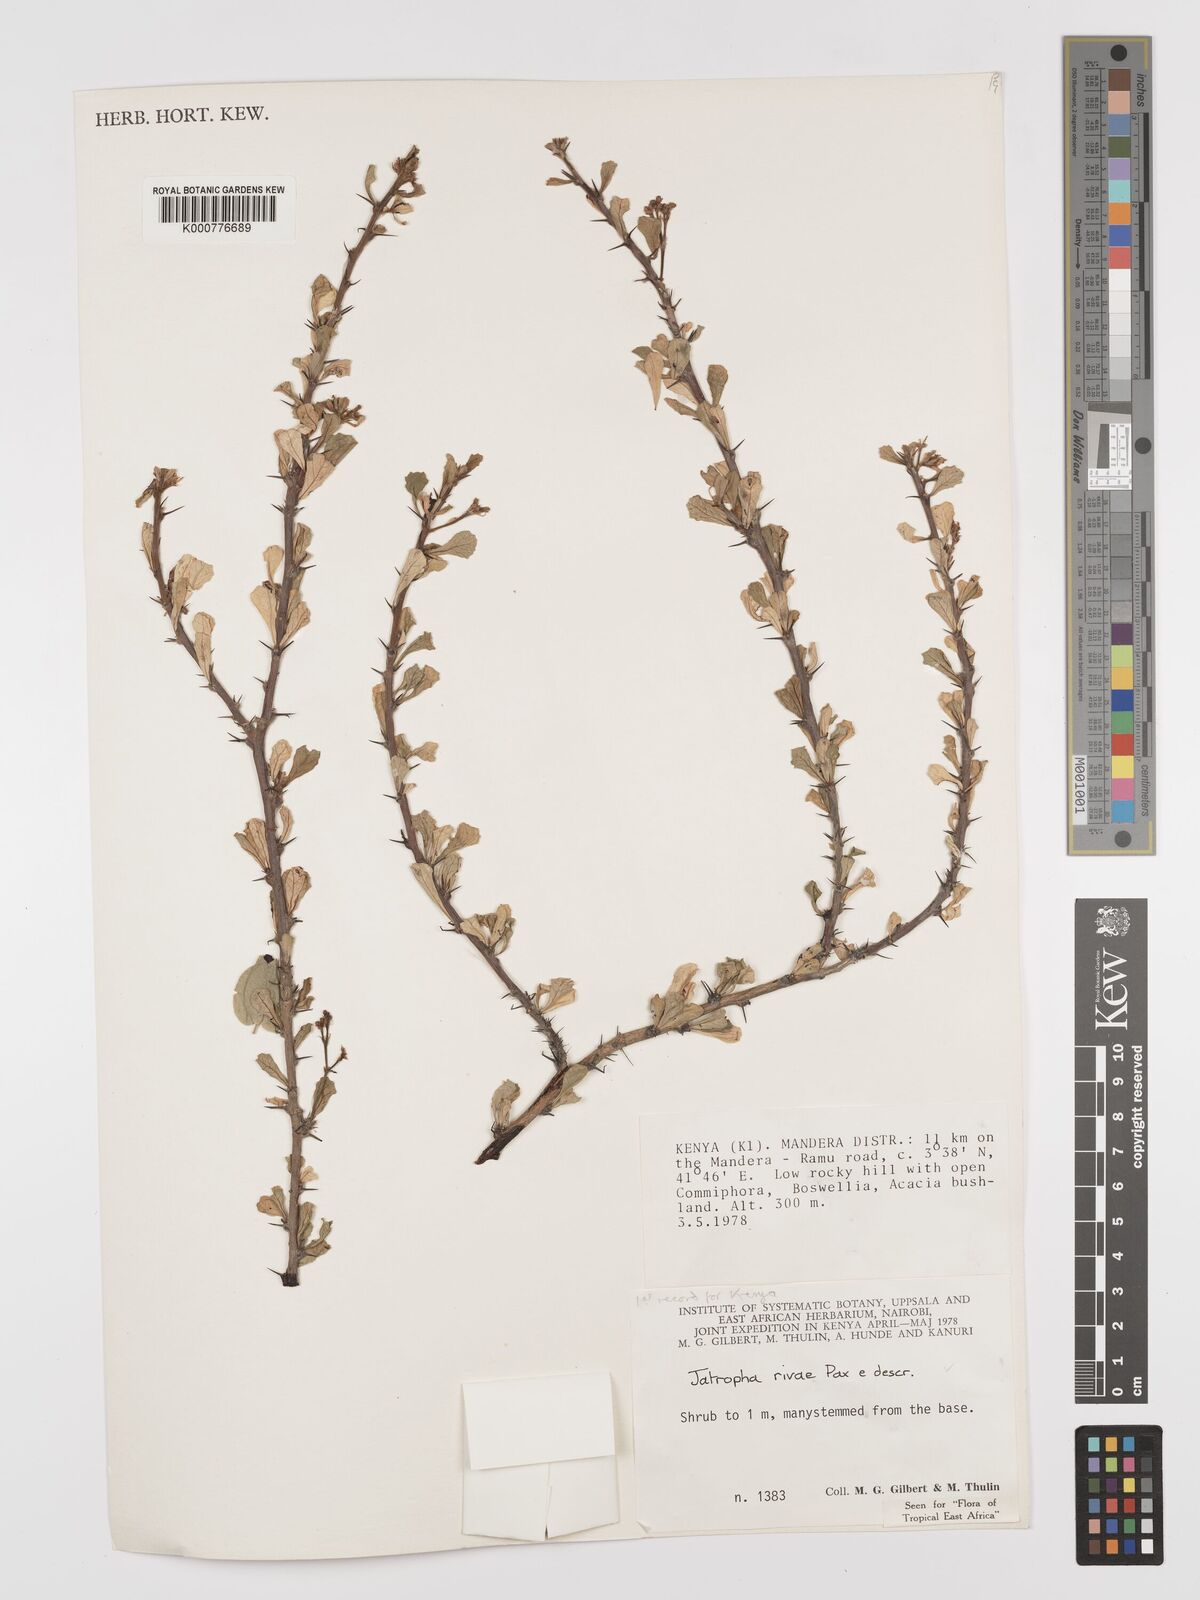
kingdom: Plantae
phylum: Tracheophyta
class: Magnoliopsida
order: Malpighiales
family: Euphorbiaceae
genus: Jatropha
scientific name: Jatropha rivae
